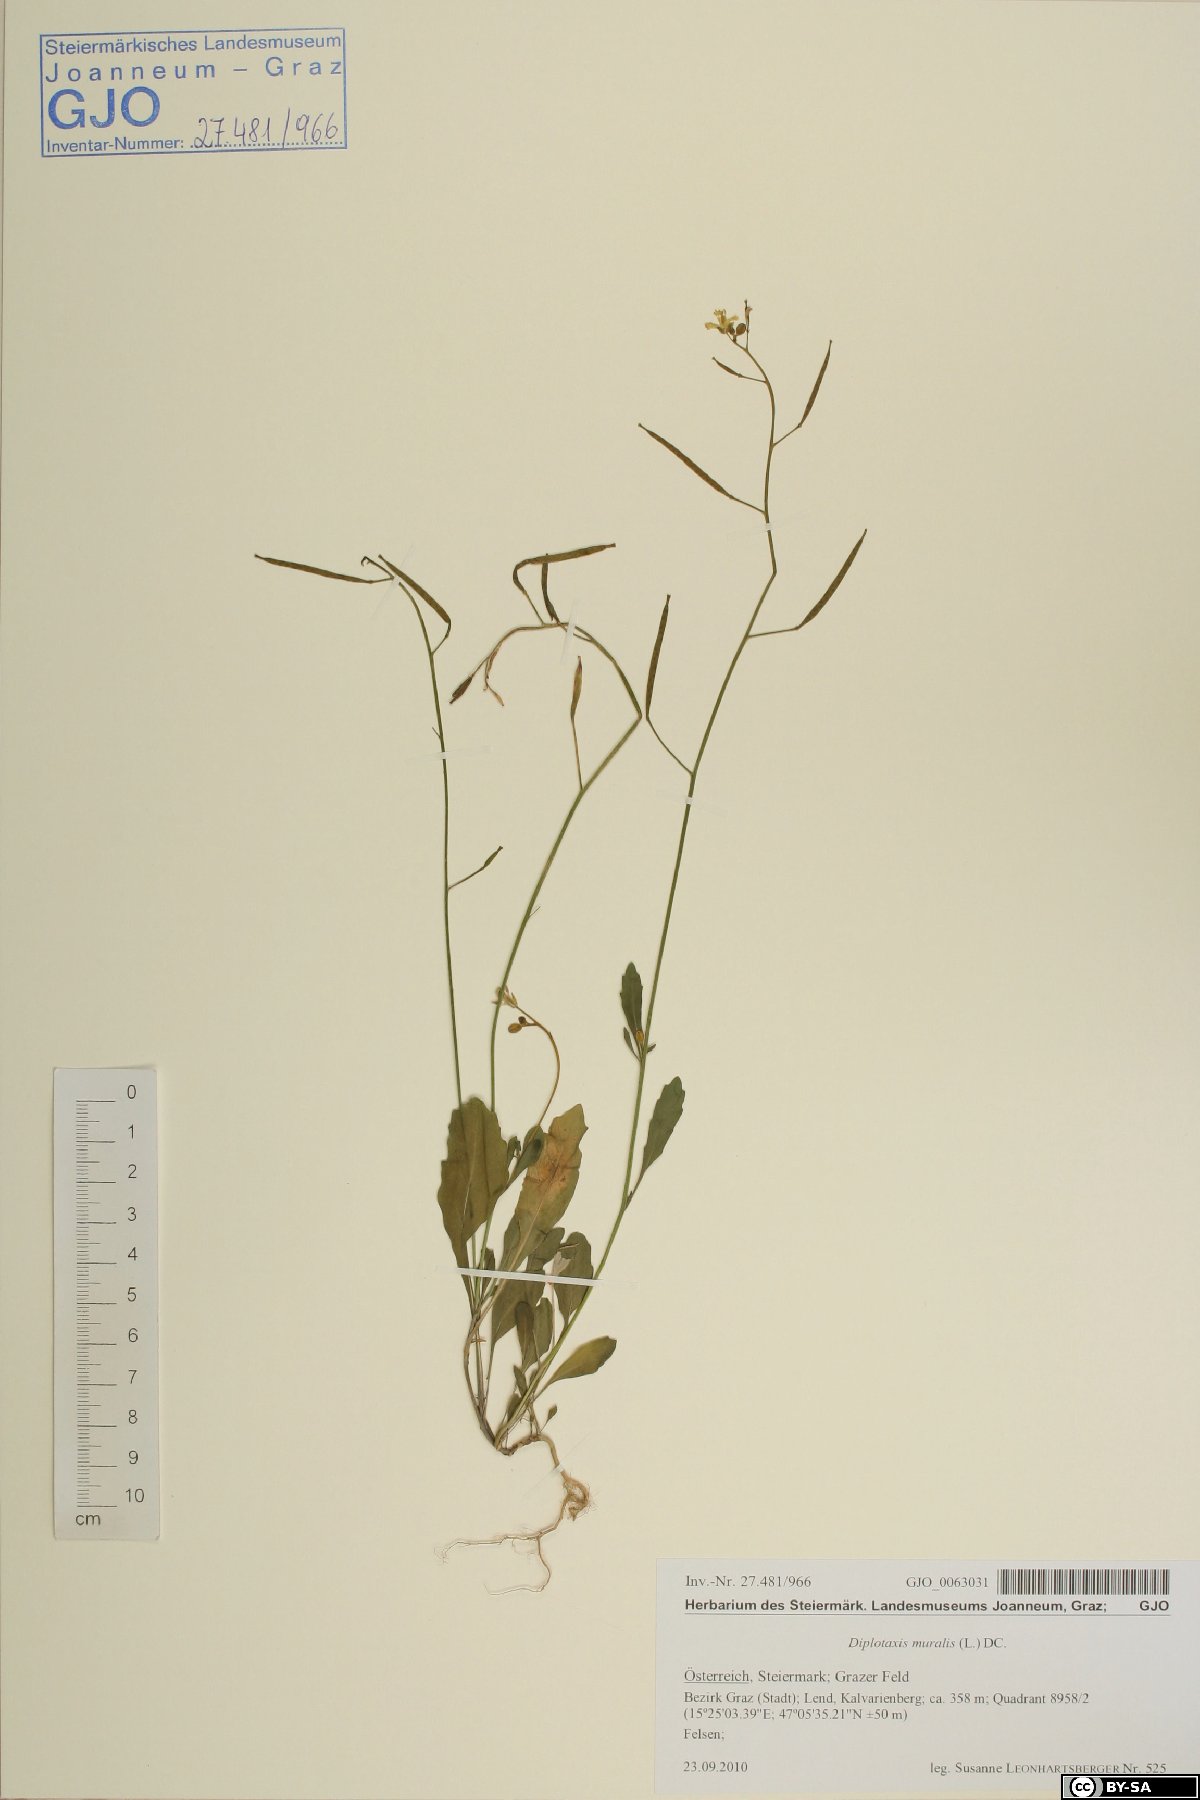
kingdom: Plantae
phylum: Tracheophyta
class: Magnoliopsida
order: Brassicales
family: Brassicaceae
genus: Diplotaxis
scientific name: Diplotaxis muralis
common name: Annual wall-rocket
